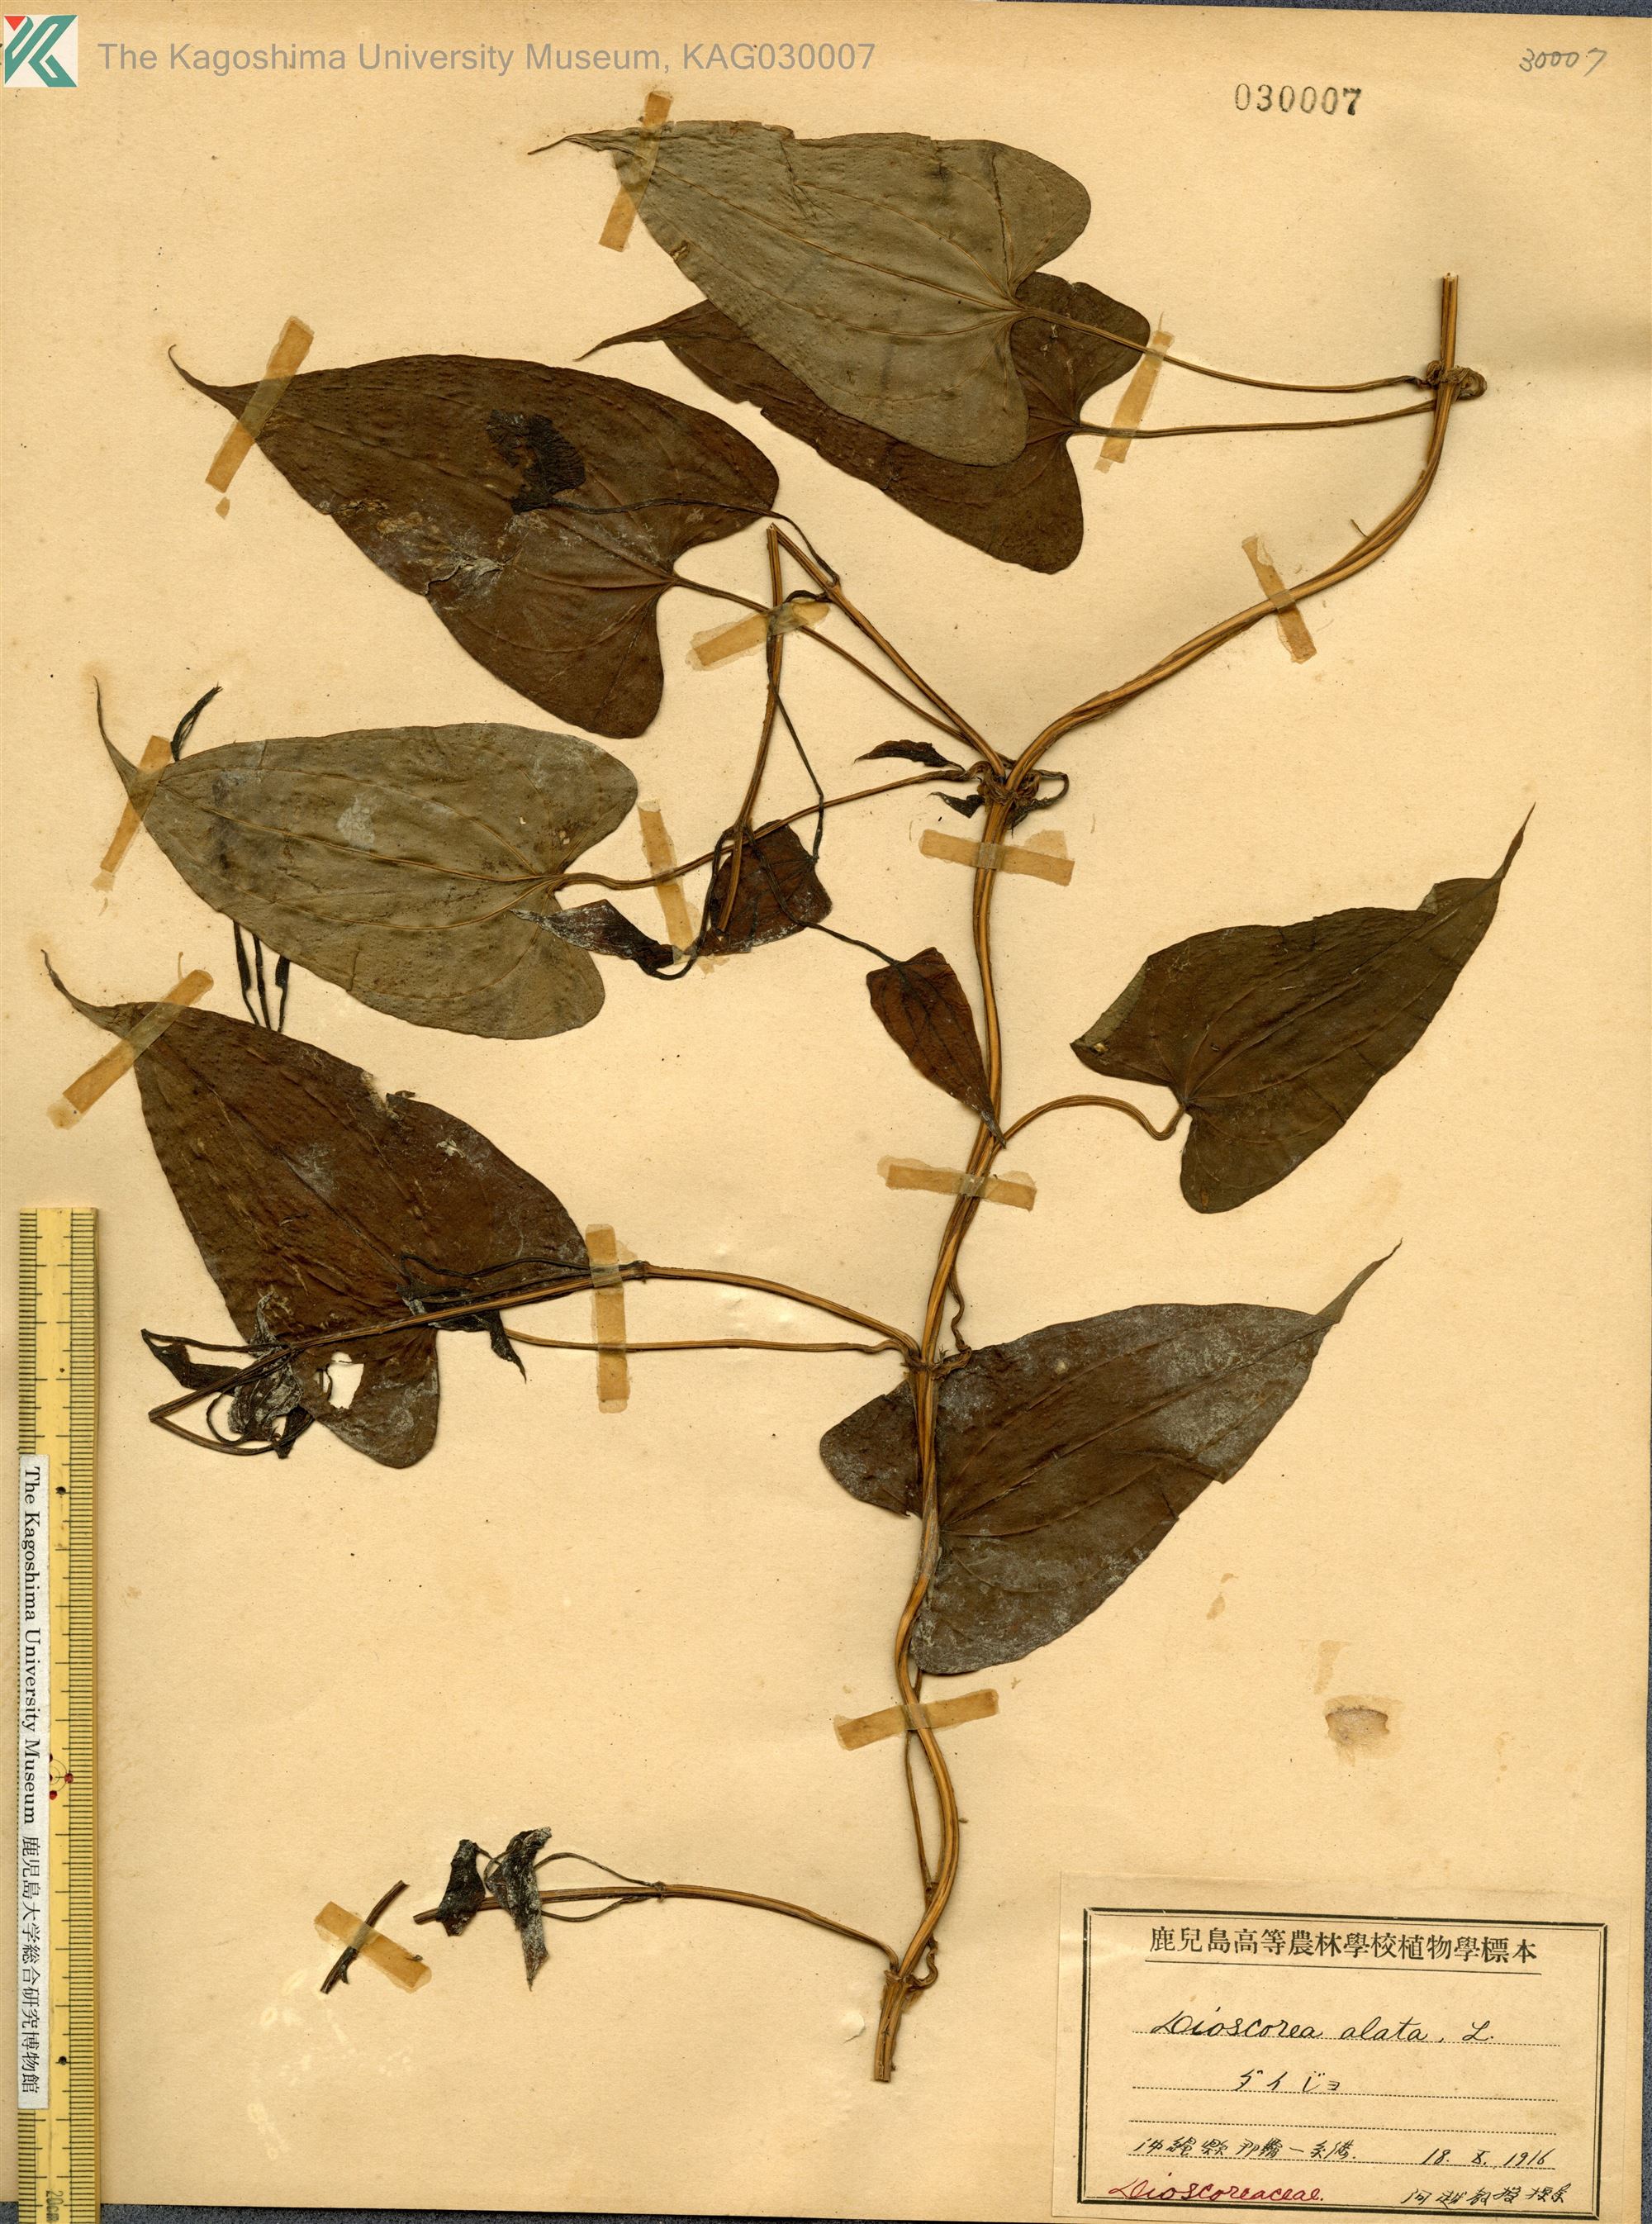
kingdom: Plantae
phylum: Tracheophyta
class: Liliopsida
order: Dioscoreales
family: Dioscoreaceae
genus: Dioscorea
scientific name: Dioscorea alata
